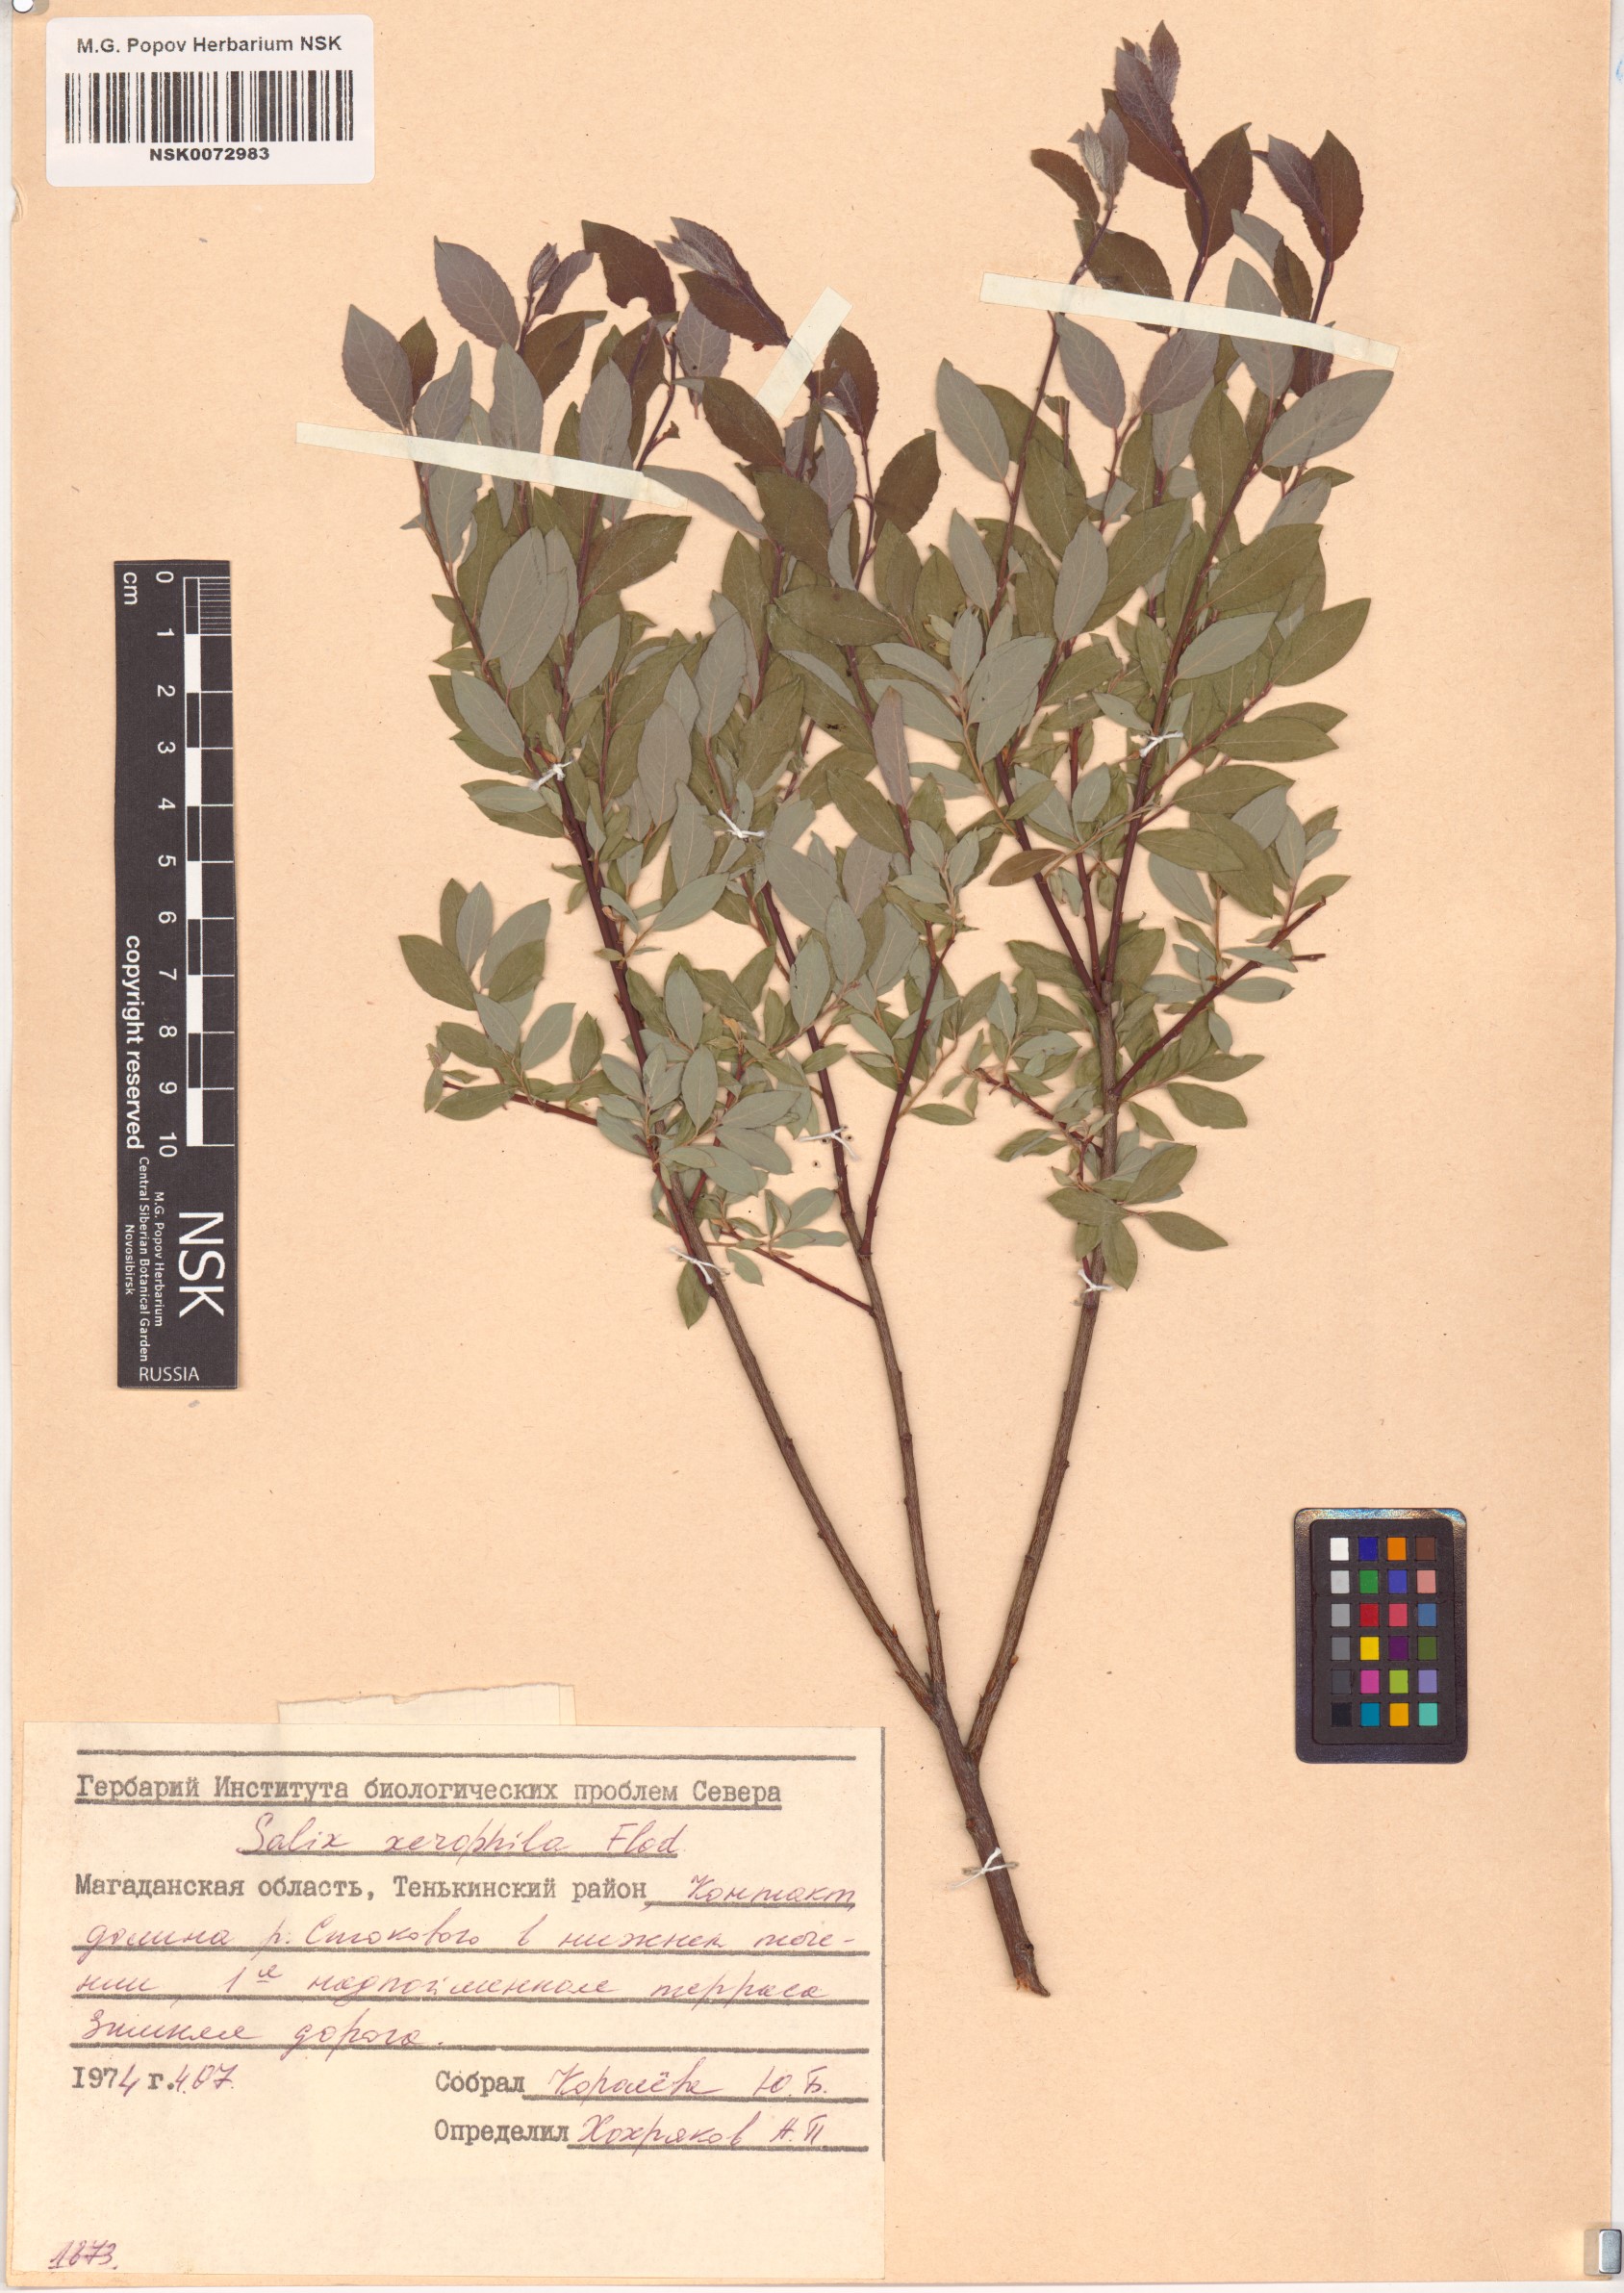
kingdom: Plantae
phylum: Tracheophyta
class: Magnoliopsida
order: Malpighiales
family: Salicaceae
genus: Salix
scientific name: Salix bebbiana
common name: Bebb's willow
